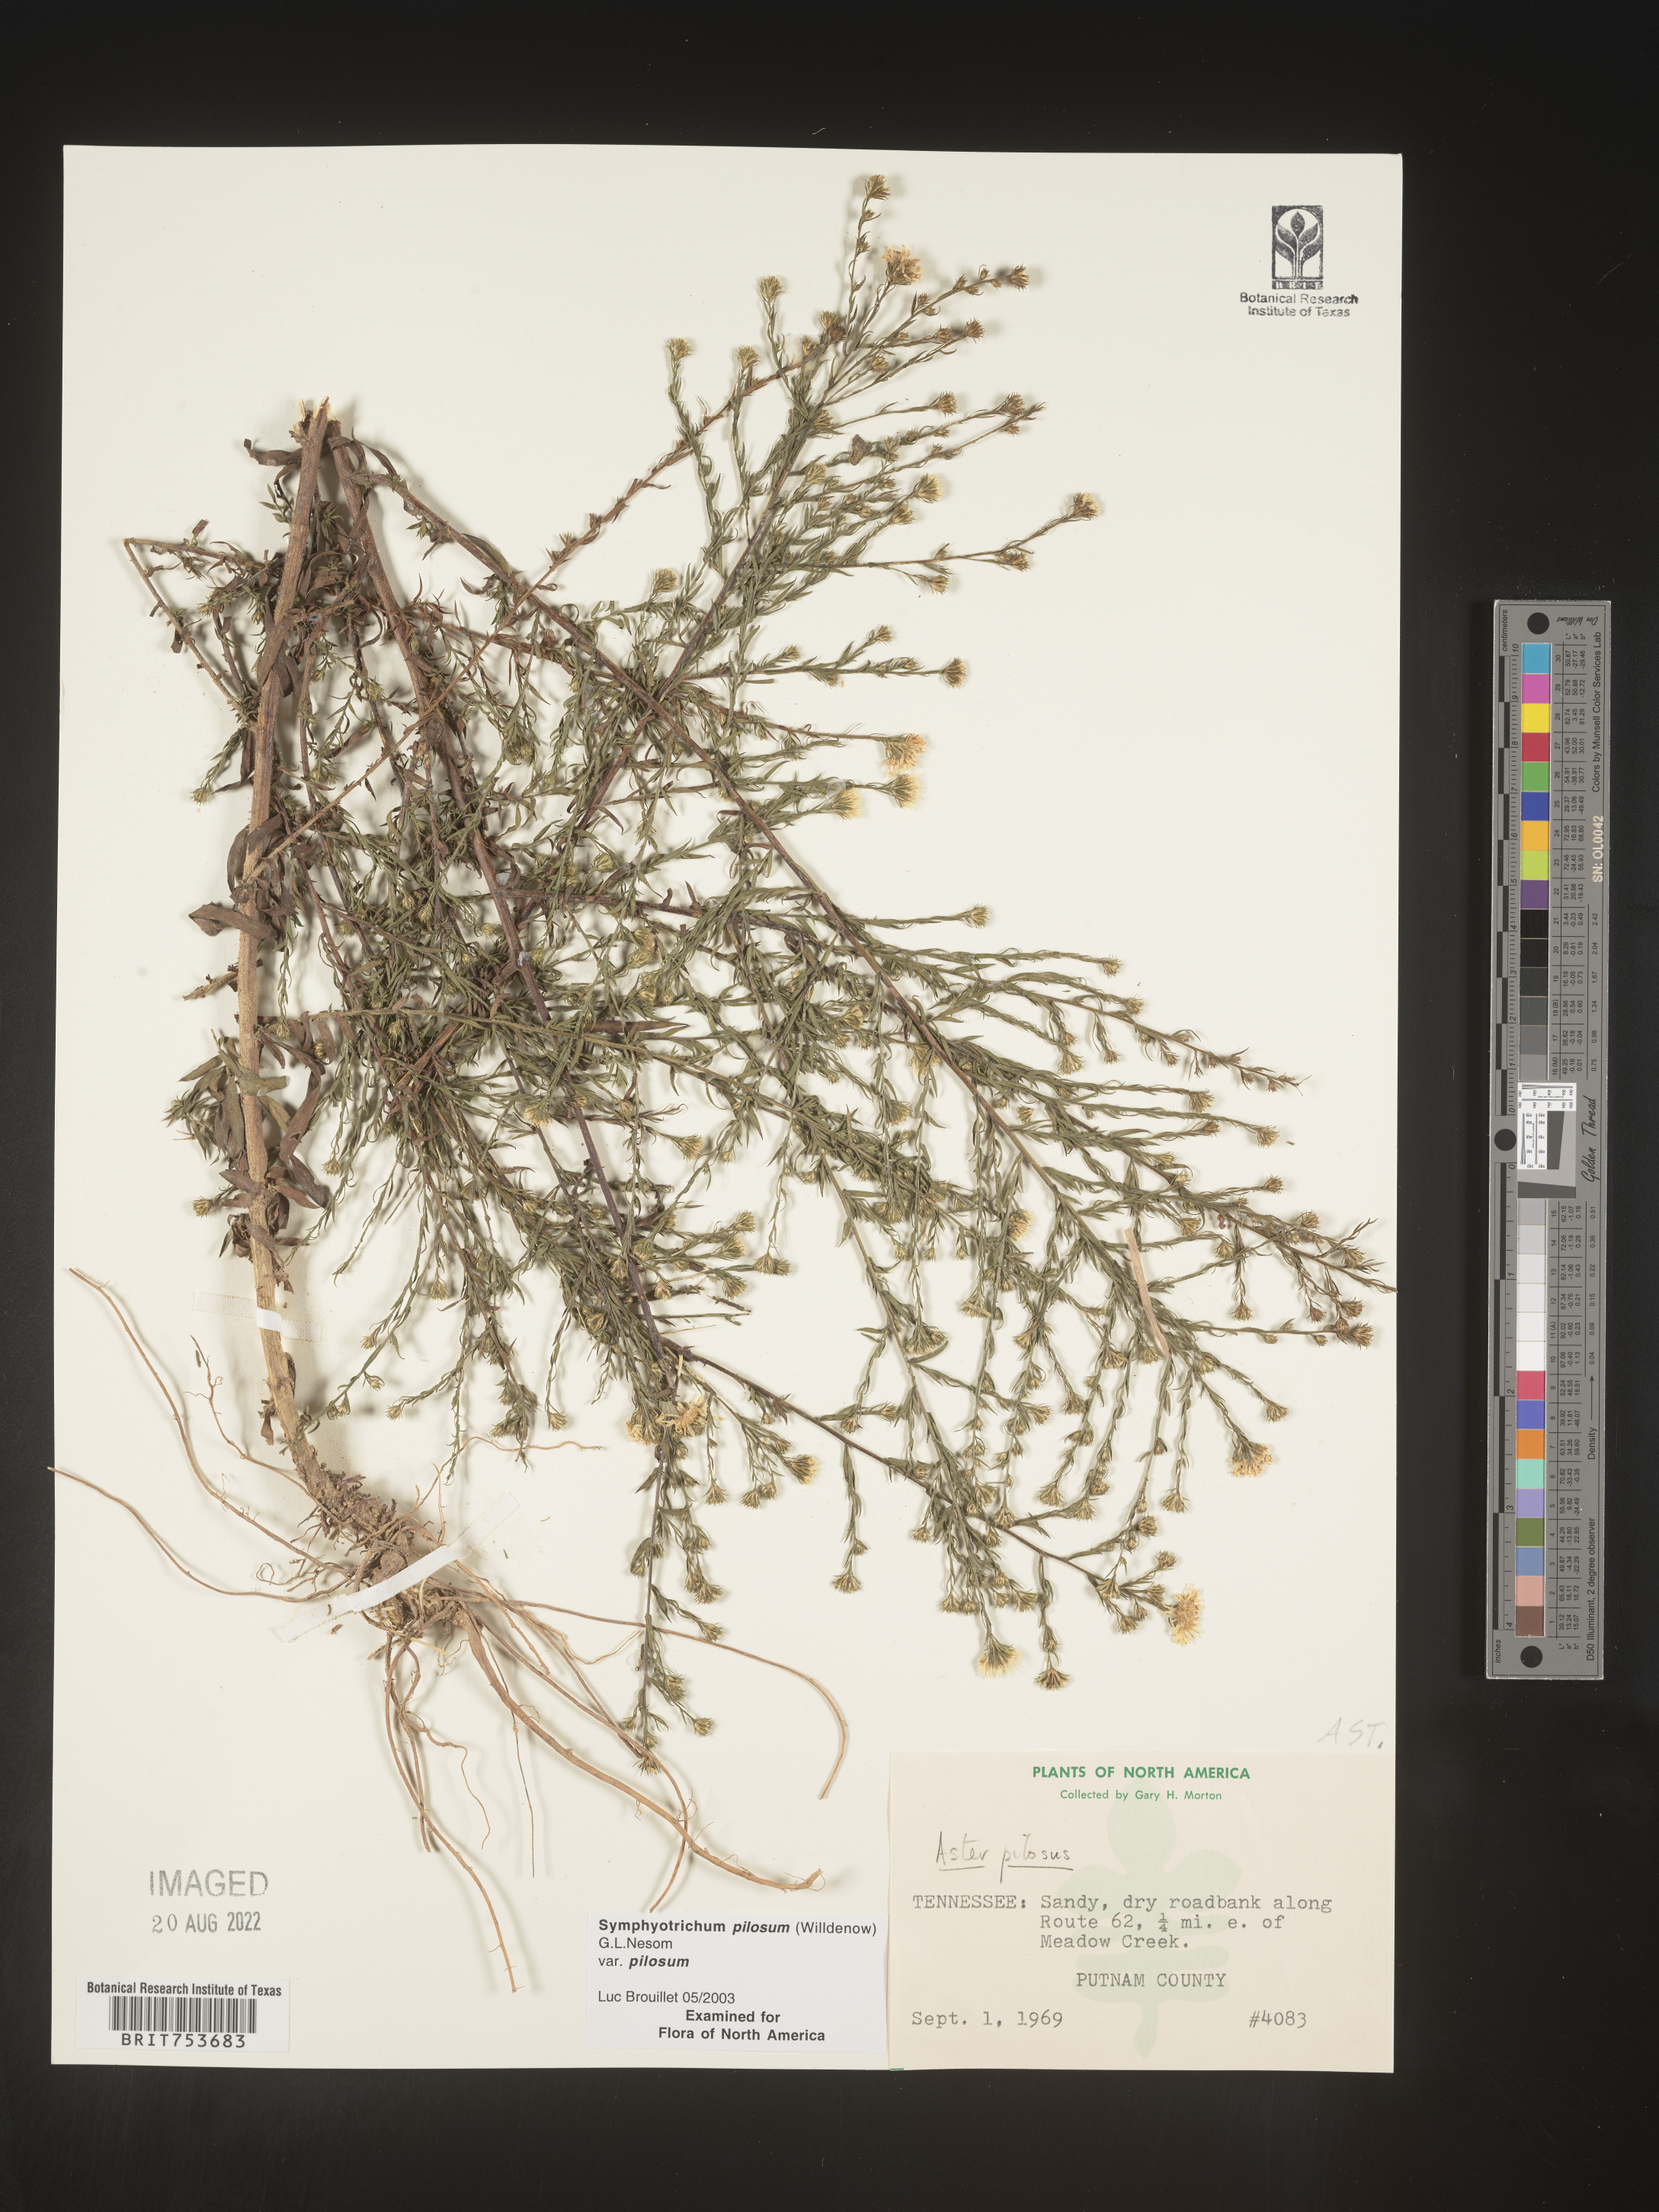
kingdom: Plantae
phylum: Tracheophyta
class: Magnoliopsida
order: Asterales
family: Asteraceae
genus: Symphyotrichum
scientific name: Symphyotrichum pilosum
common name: Awl aster
